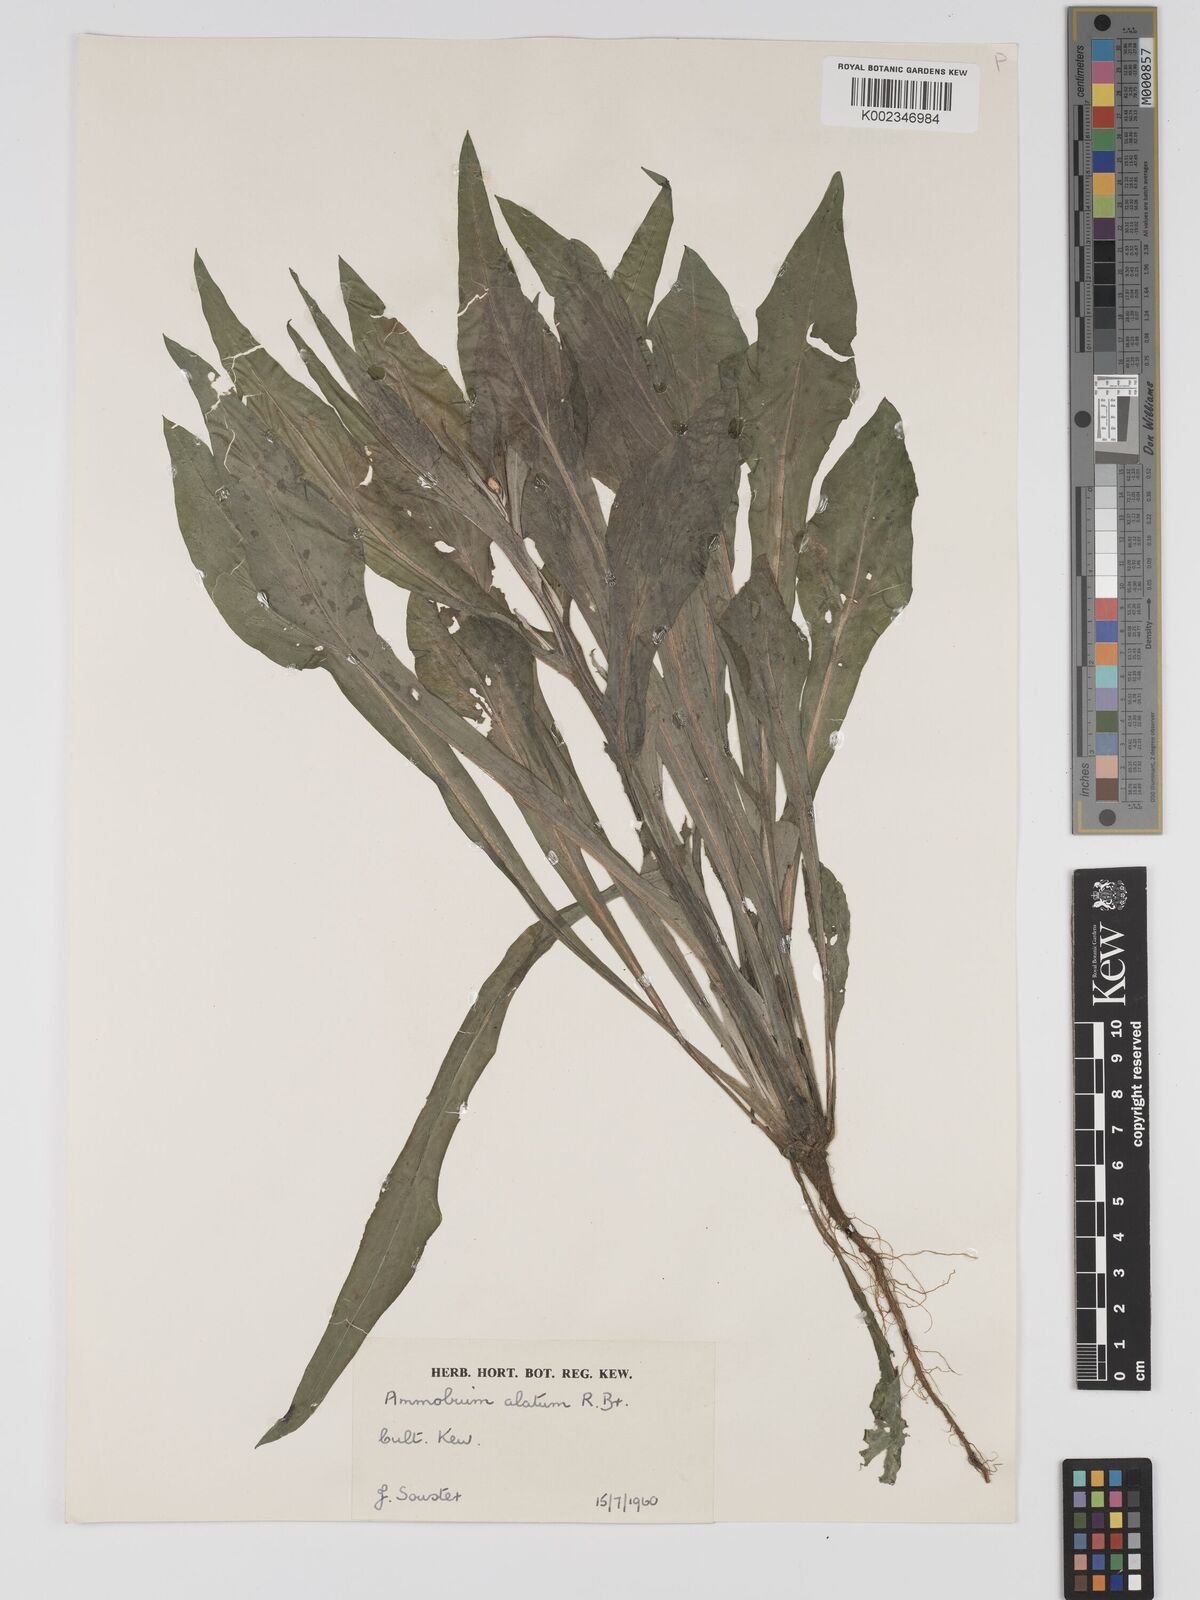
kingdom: Plantae
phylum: Tracheophyta
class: Magnoliopsida
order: Asterales
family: Asteraceae
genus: Ammobium
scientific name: Ammobium alatum
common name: Winged everlasting
